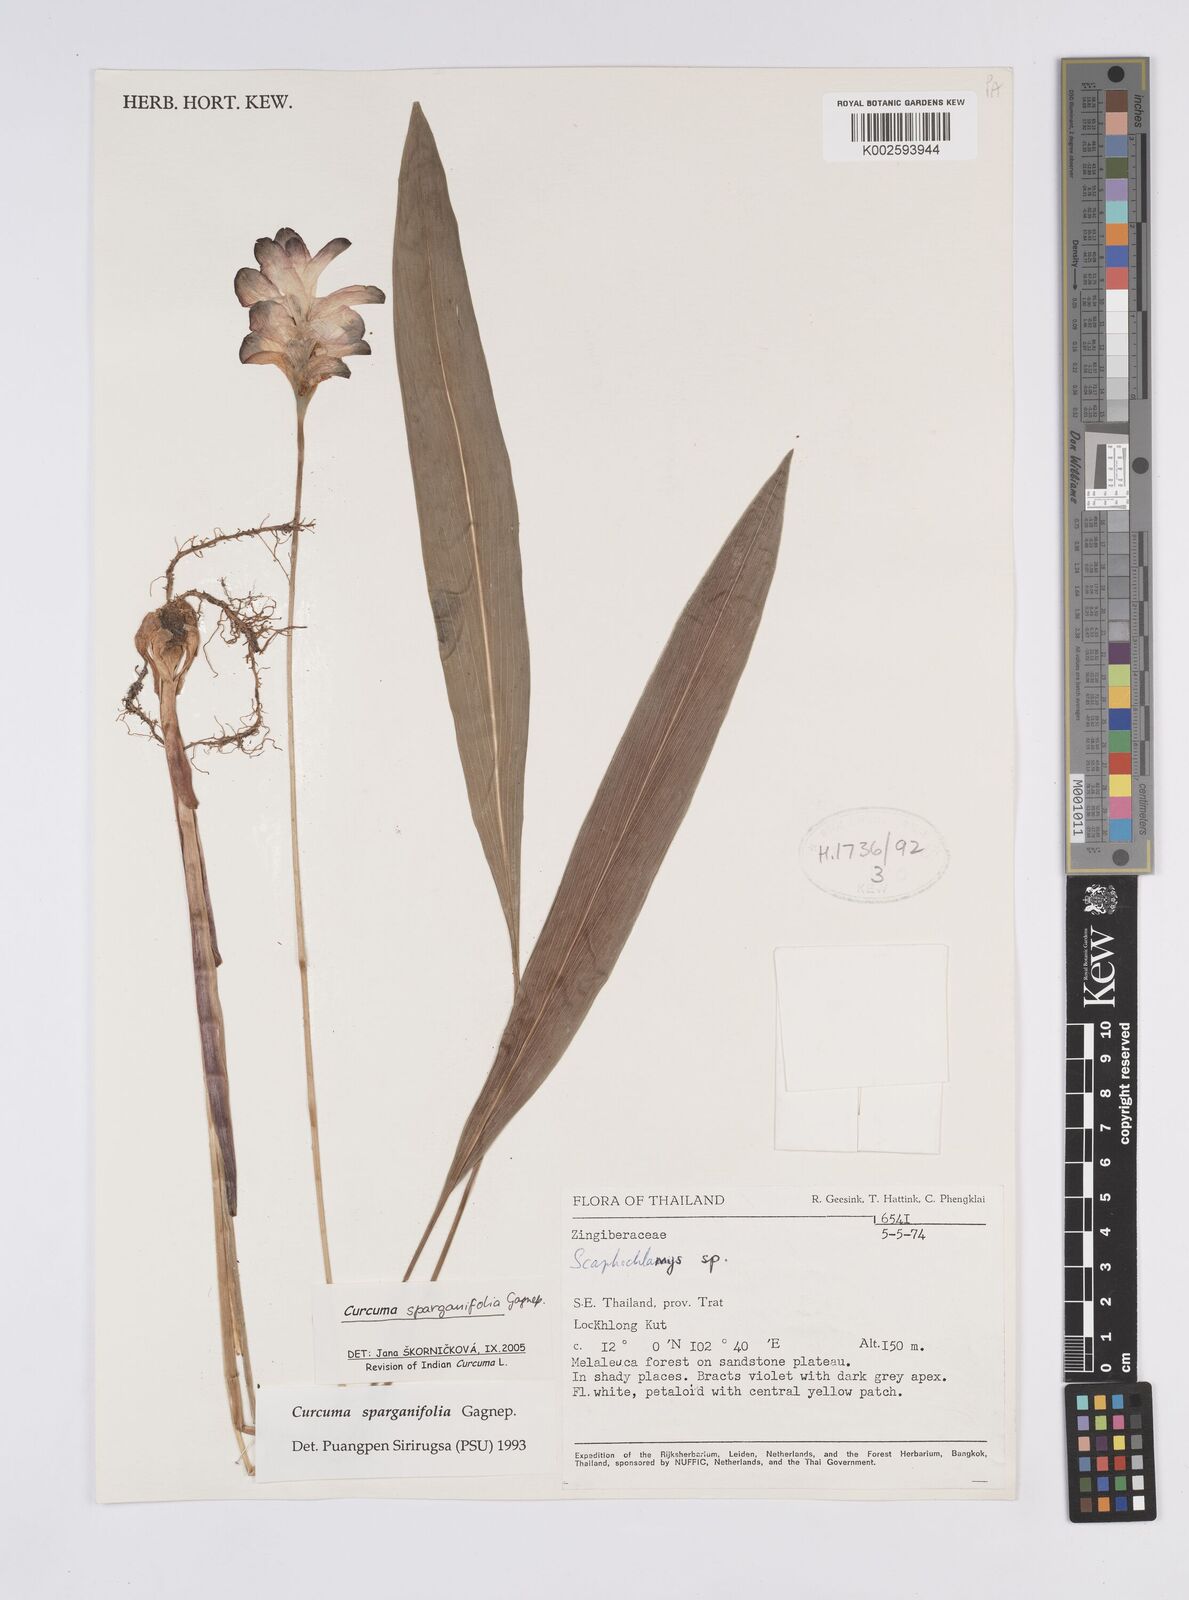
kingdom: Plantae
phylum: Tracheophyta
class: Liliopsida
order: Zingiberales
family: Zingiberaceae
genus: Curcuma
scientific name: Curcuma sparganiifolia
